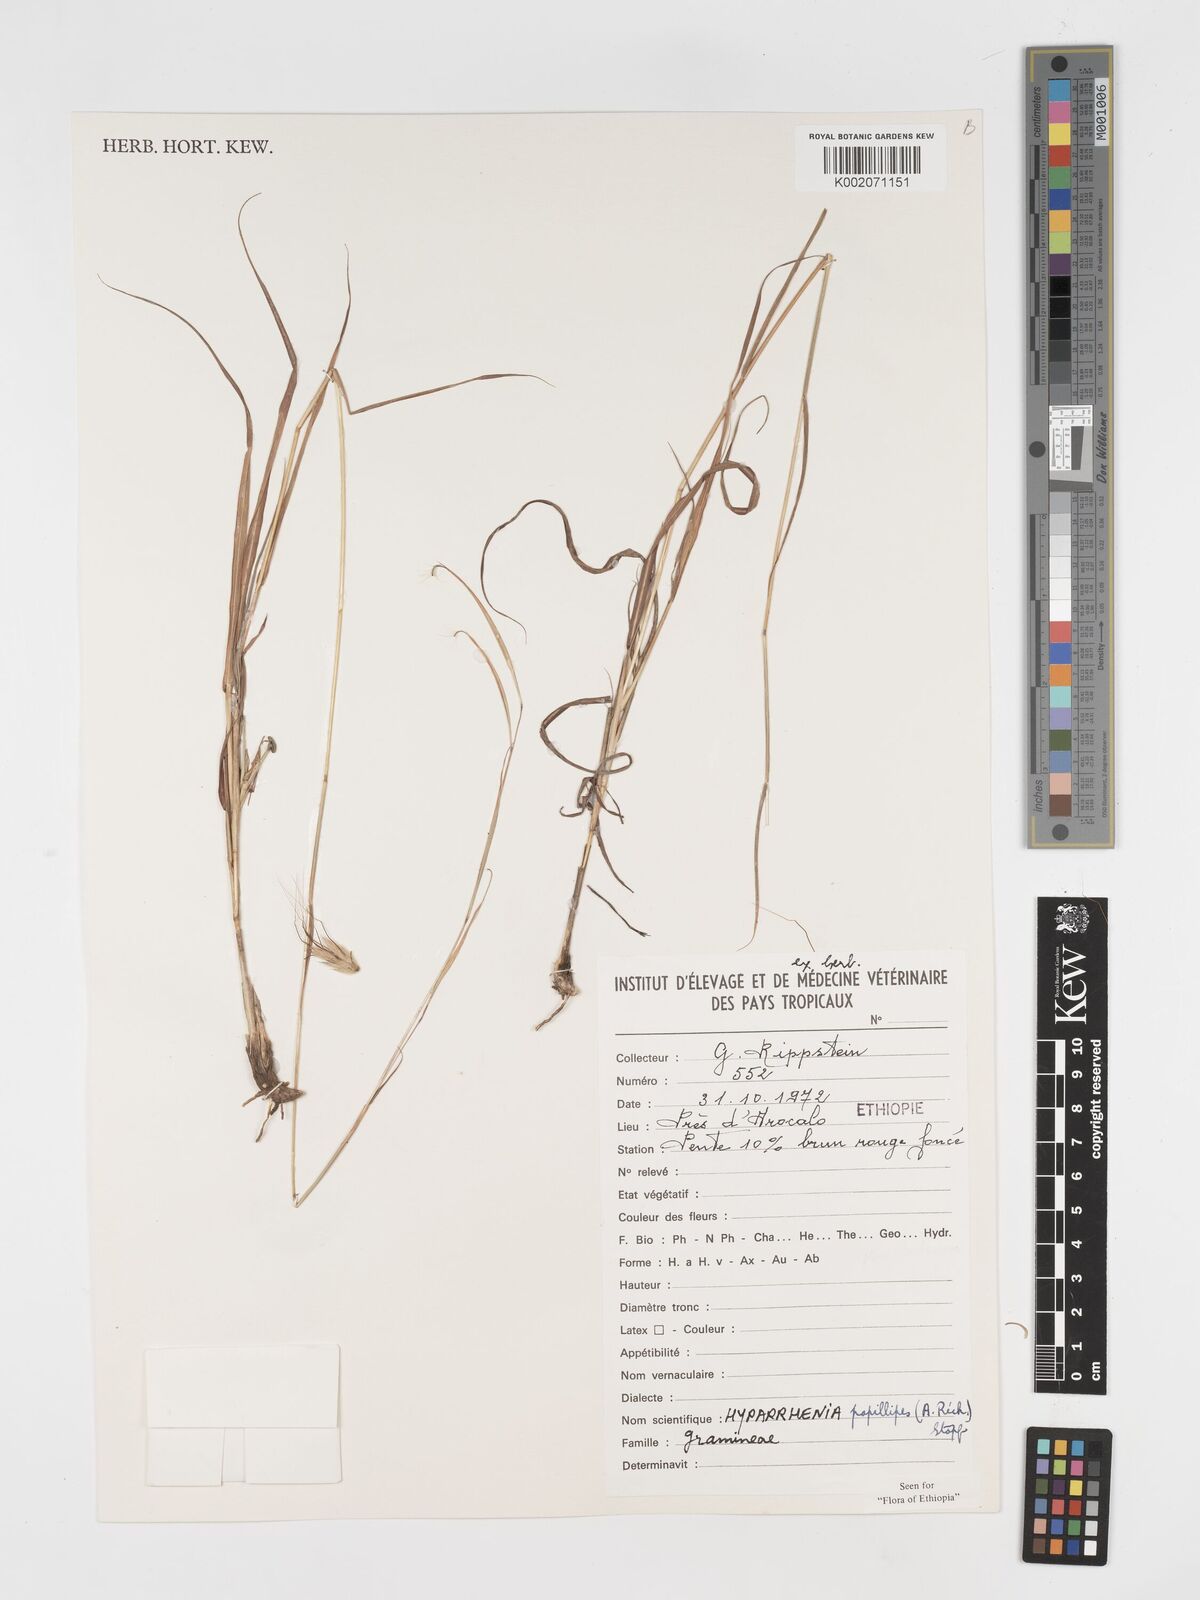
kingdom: Plantae
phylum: Tracheophyta
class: Liliopsida
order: Poales
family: Poaceae
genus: Hyparrhenia
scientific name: Hyparrhenia papillipes
